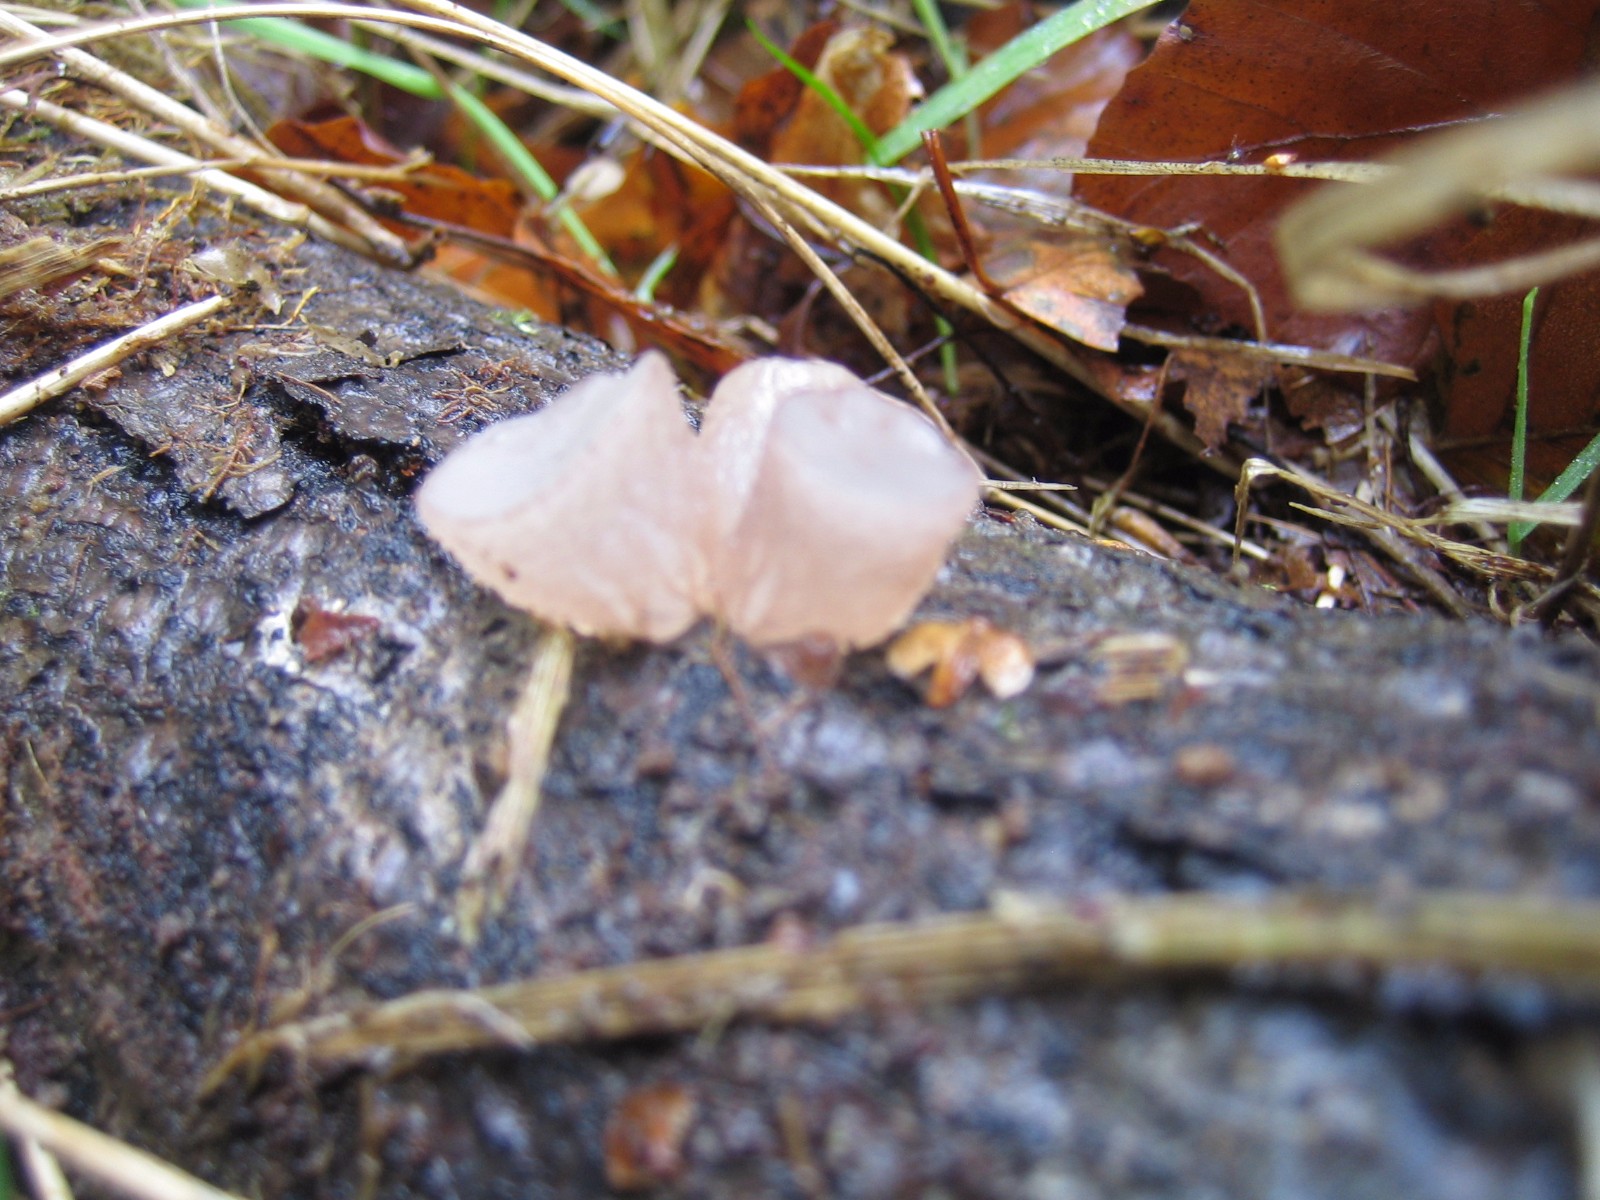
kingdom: Fungi
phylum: Ascomycota
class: Leotiomycetes
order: Helotiales
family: Gelatinodiscaceae
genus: Neobulgaria
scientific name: Neobulgaria pura
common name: bleg bævreskive
